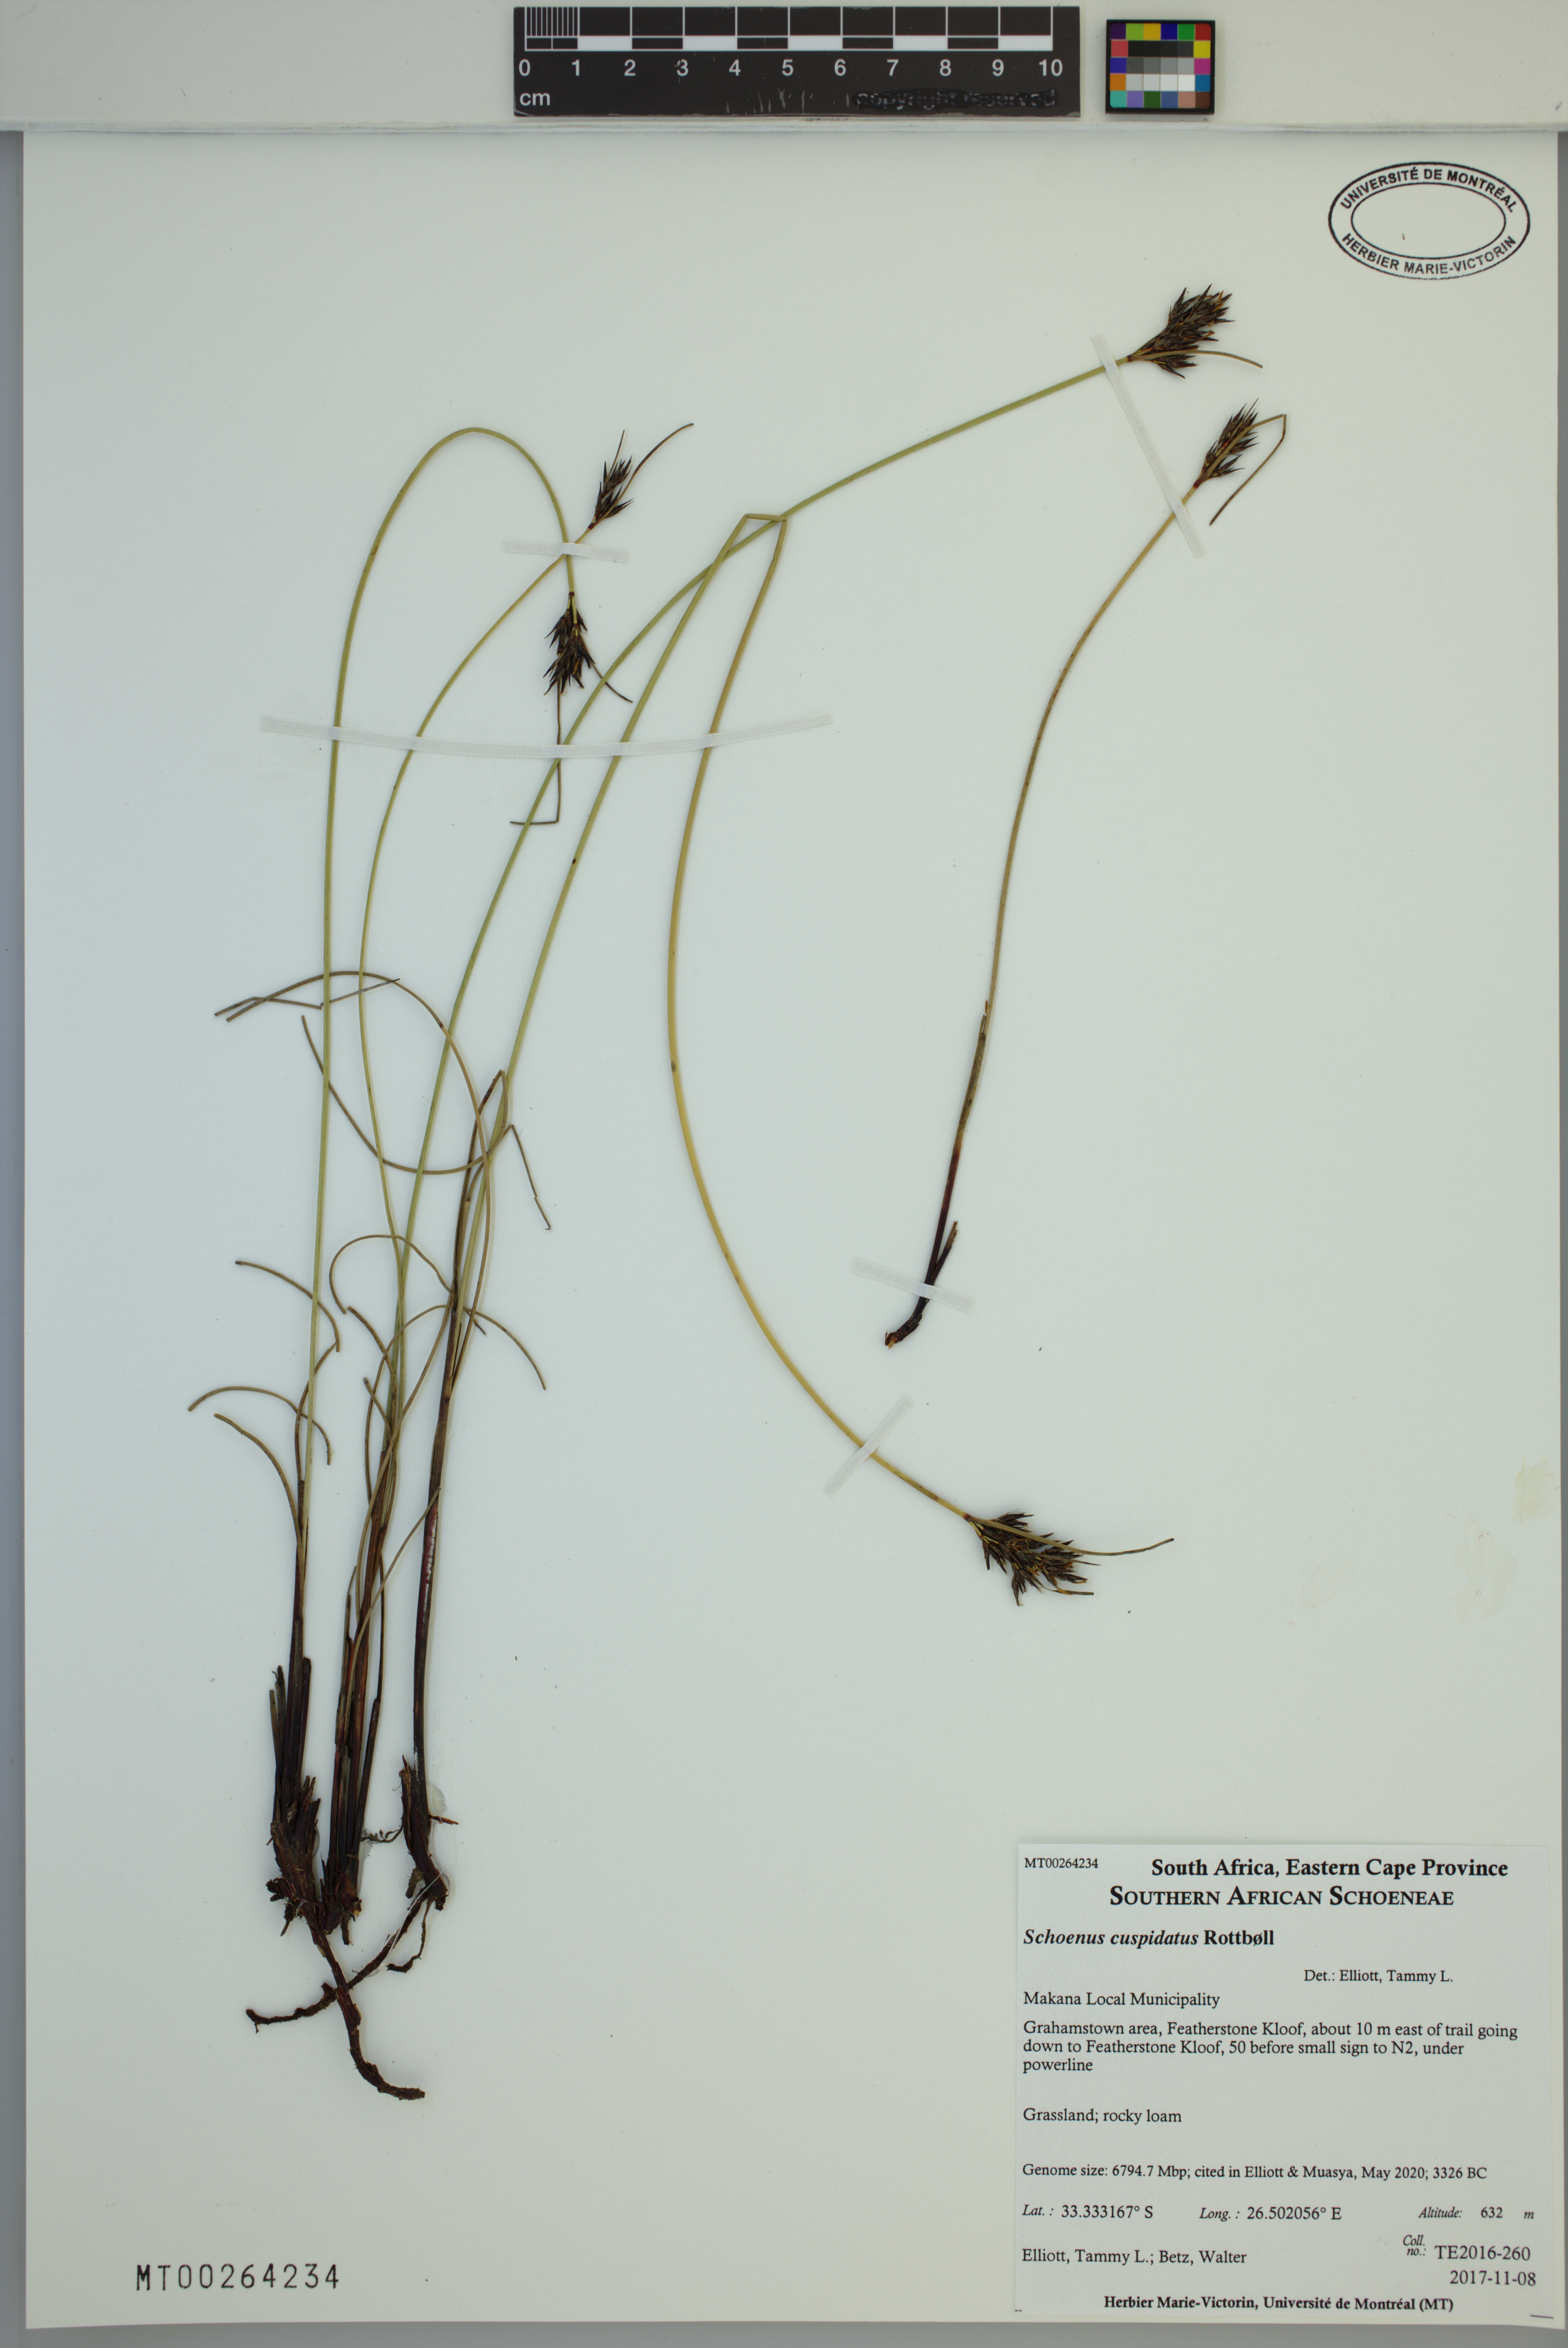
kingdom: Plantae
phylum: Tracheophyta
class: Liliopsida
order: Poales
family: Cyperaceae
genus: Schoenus
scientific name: Schoenus cuspidatus
